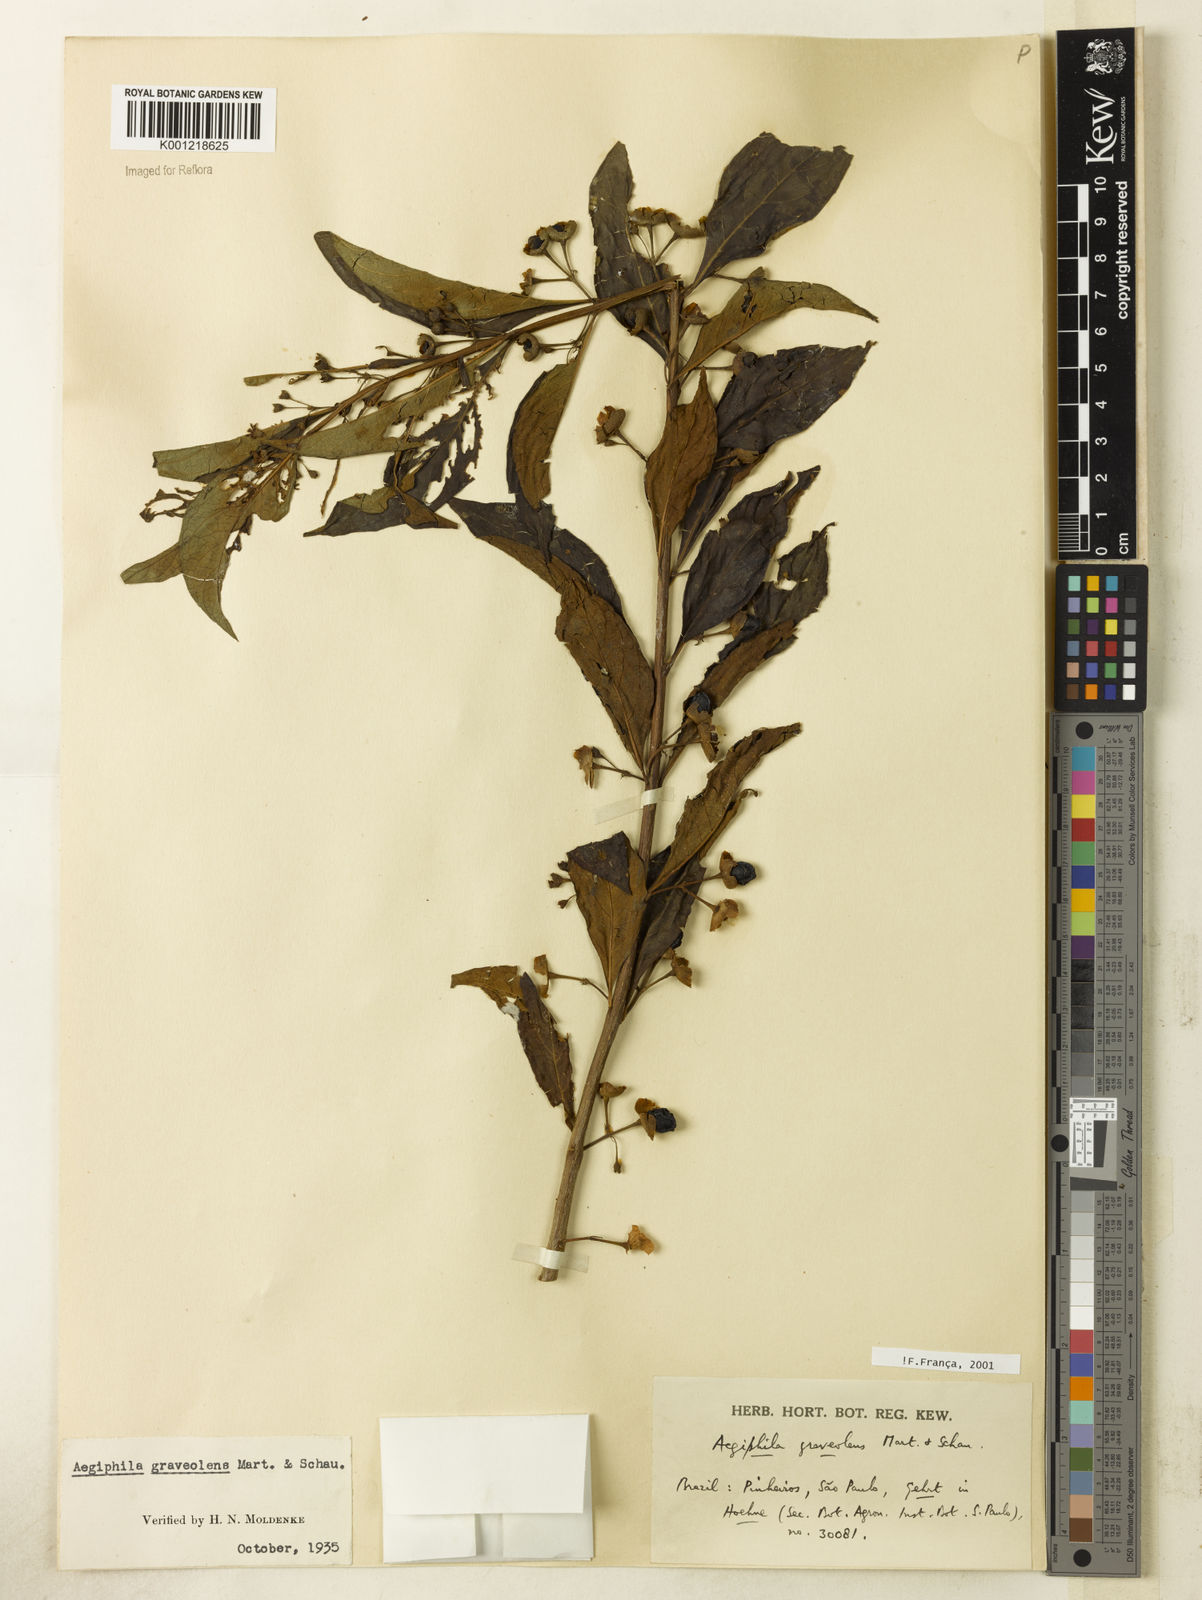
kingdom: Plantae
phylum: Tracheophyta
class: Magnoliopsida
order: Lamiales
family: Lamiaceae
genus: Aegiphila
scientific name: Aegiphila graveolens
